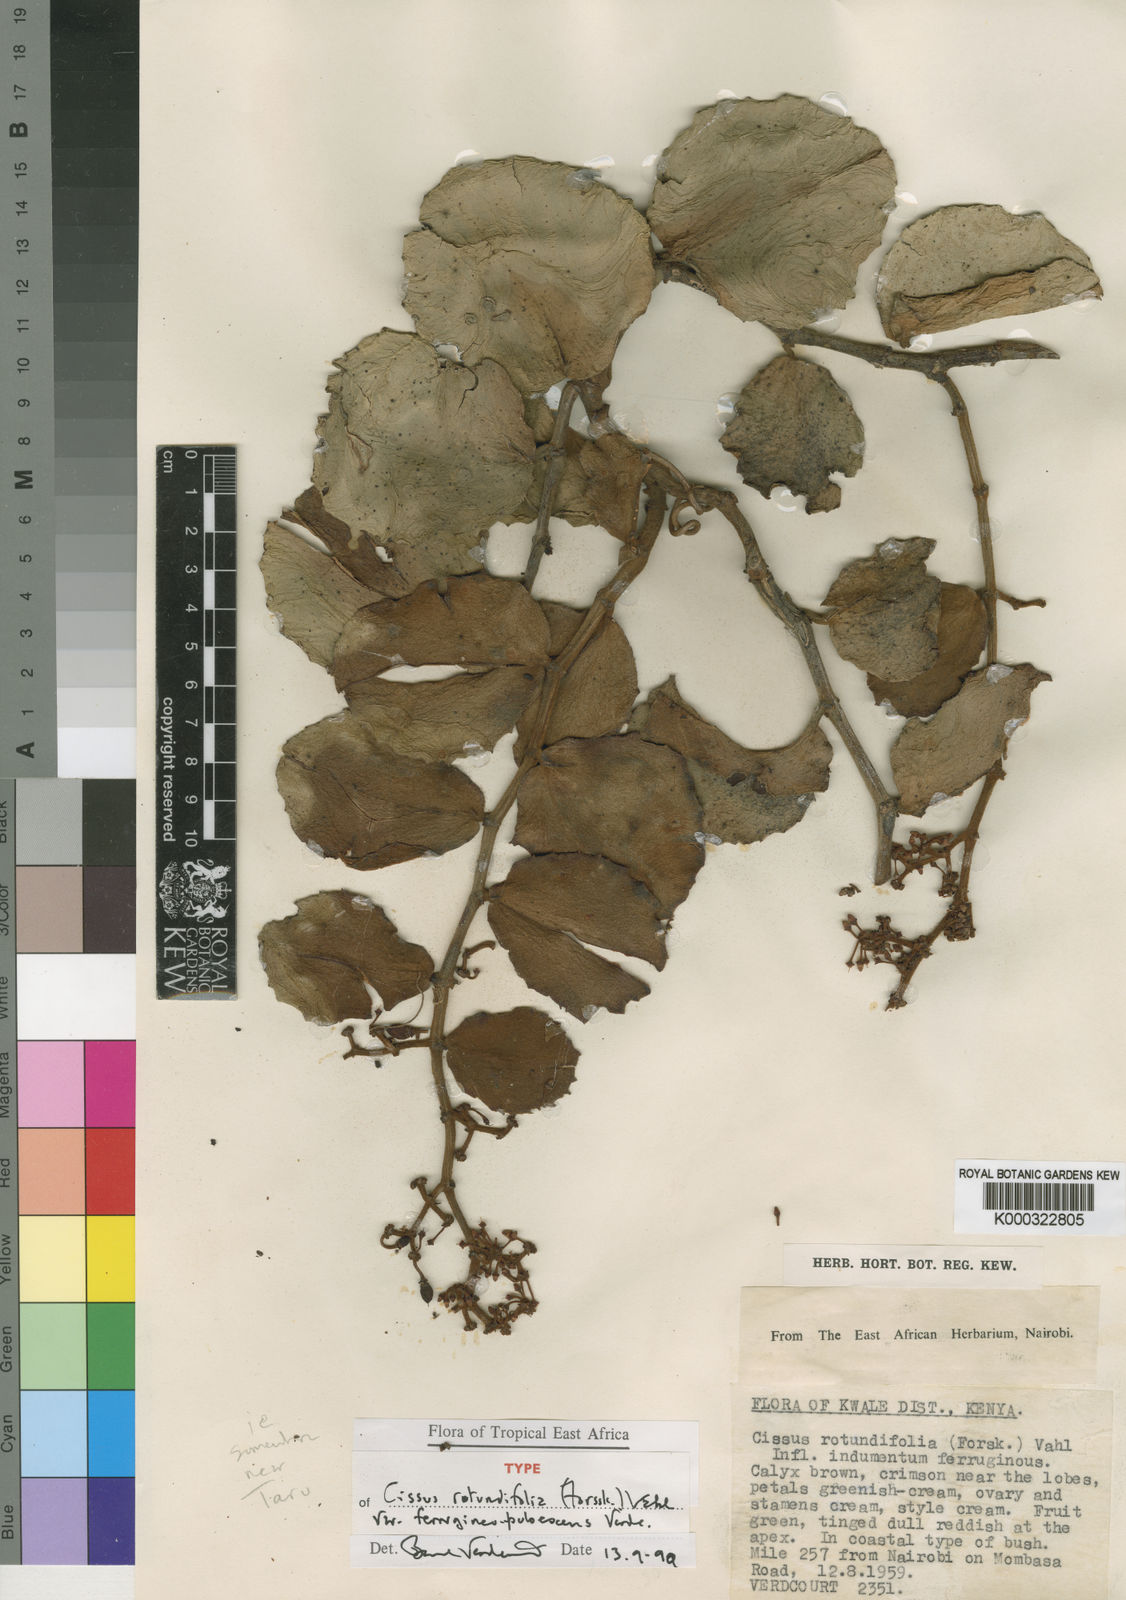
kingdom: Plantae
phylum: Tracheophyta
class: Magnoliopsida
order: Vitales
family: Vitaceae
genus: Cissus
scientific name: Cissus rotundifolia
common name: Arabian wax cissus
